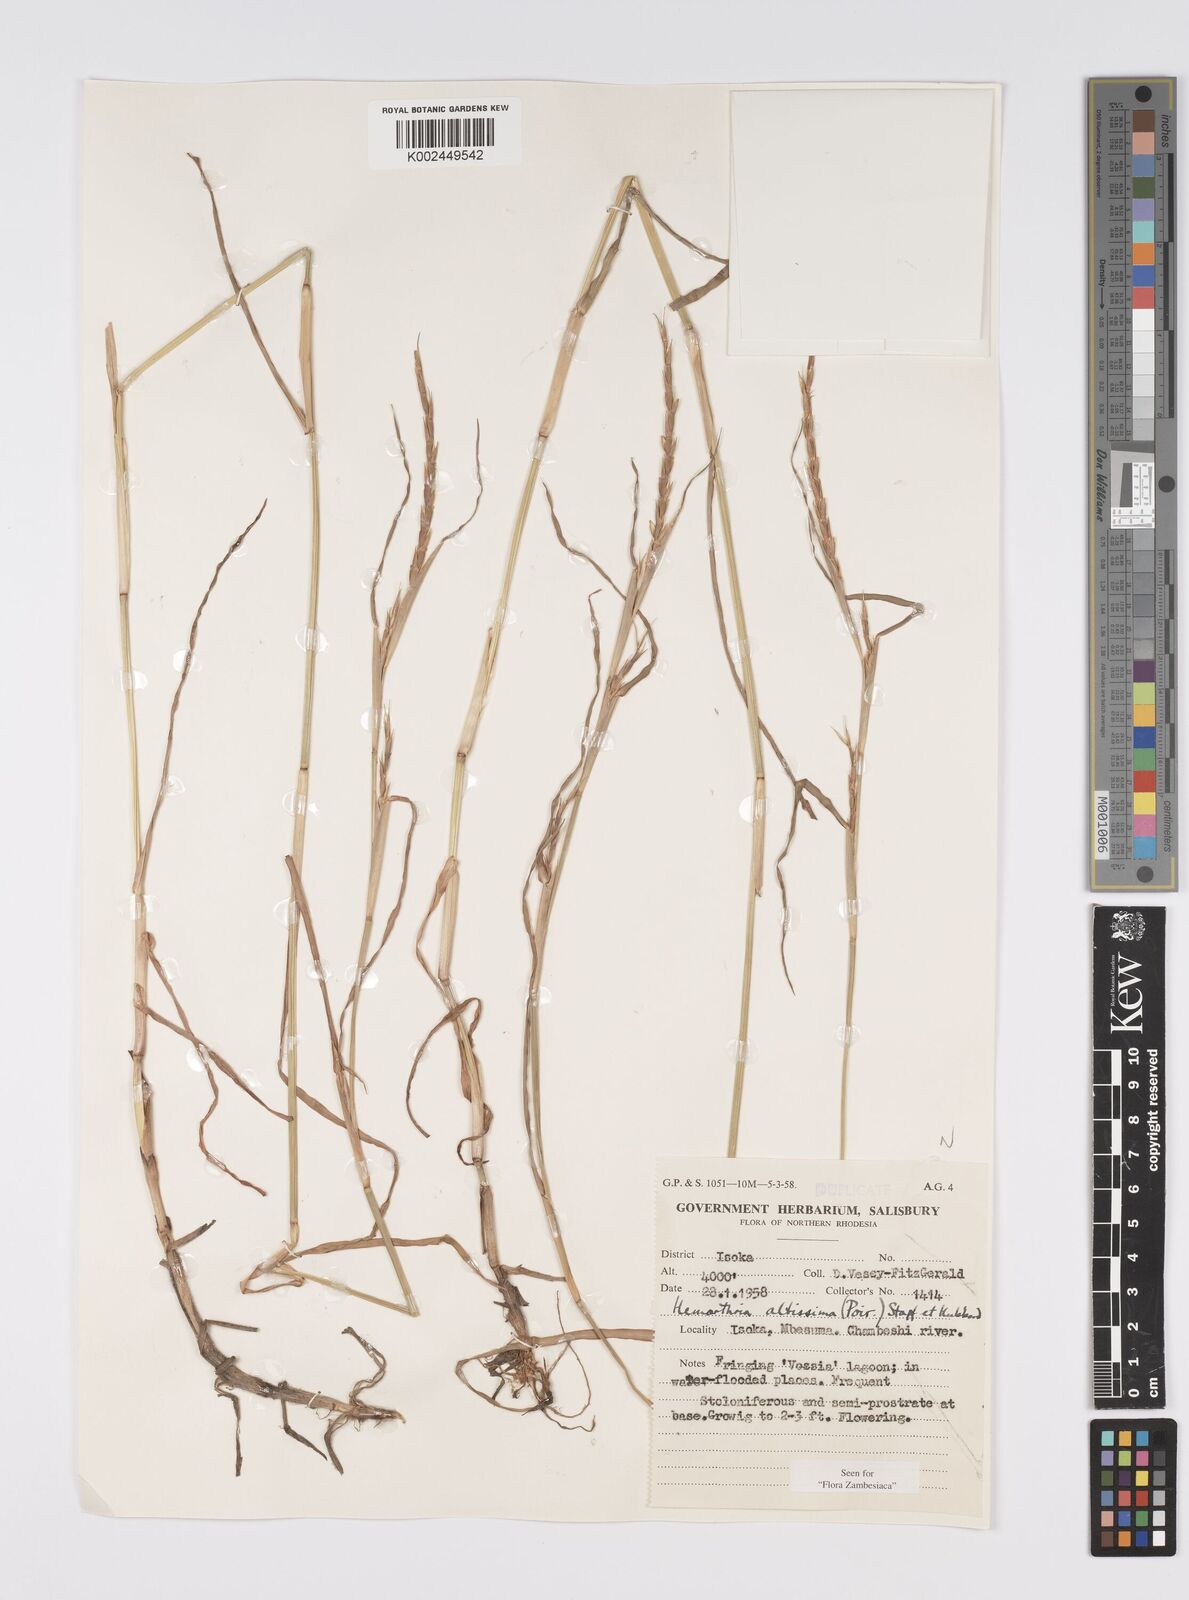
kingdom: Plantae
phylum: Tracheophyta
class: Liliopsida
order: Poales
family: Poaceae
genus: Hemarthria
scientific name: Hemarthria altissima
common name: African jointgrass
